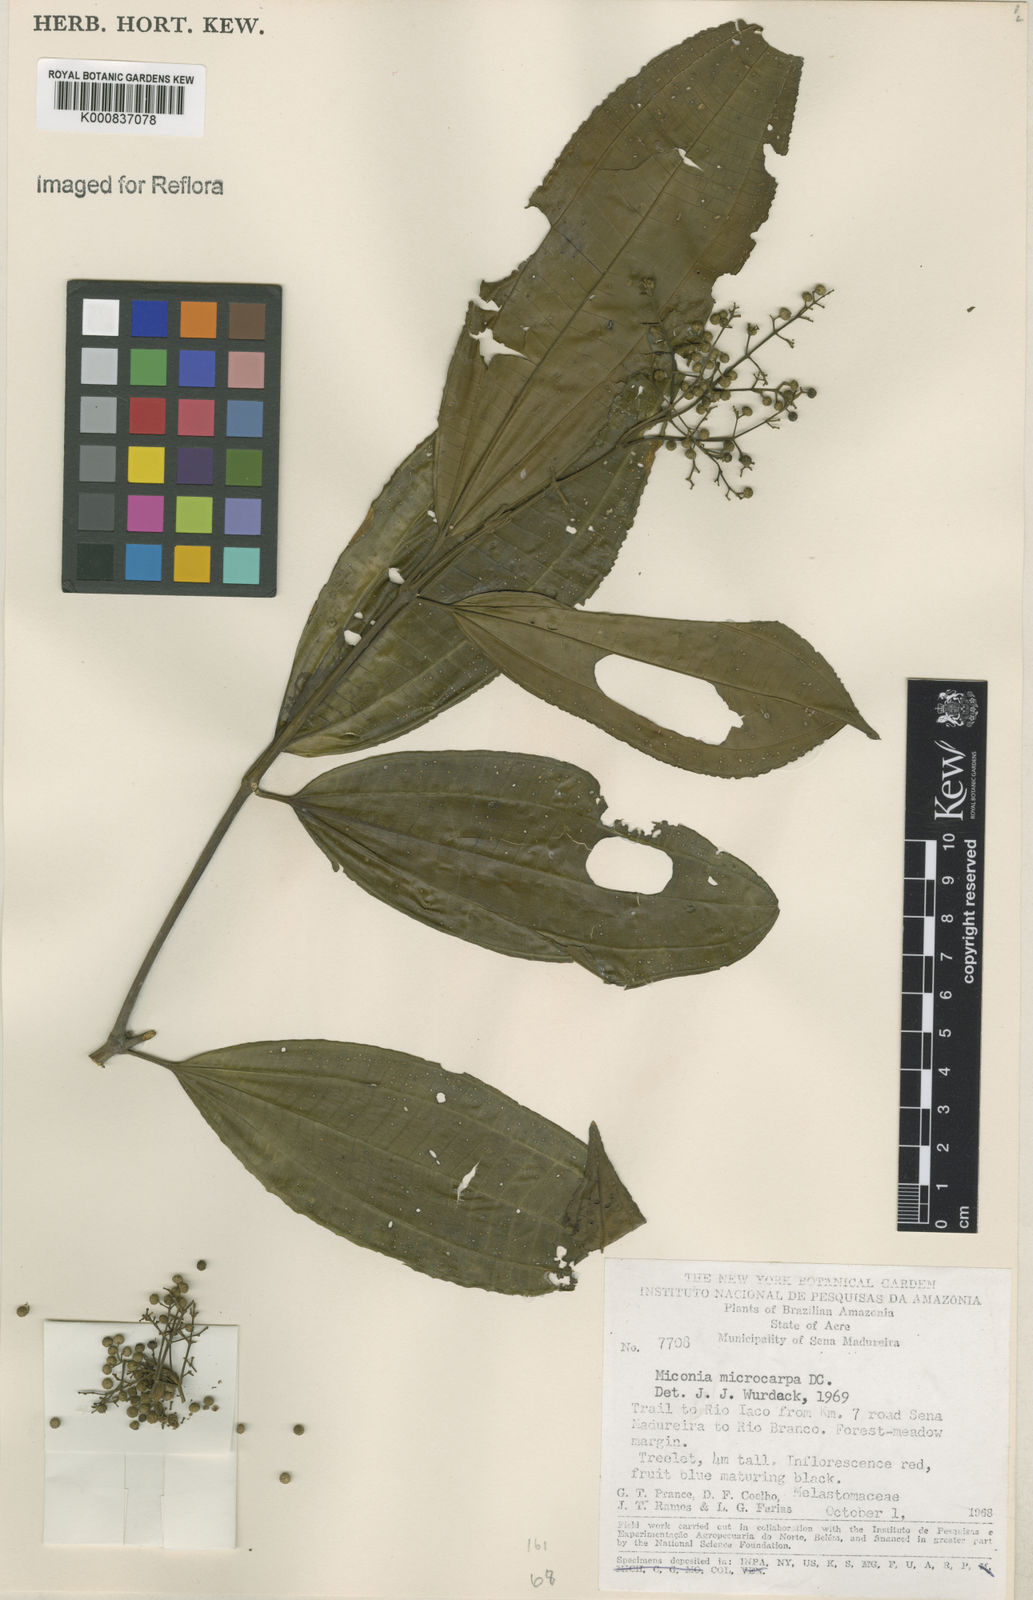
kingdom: Plantae
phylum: Tracheophyta
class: Magnoliopsida
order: Myrtales
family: Melastomataceae
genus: Miconia
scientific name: Miconia affinis
